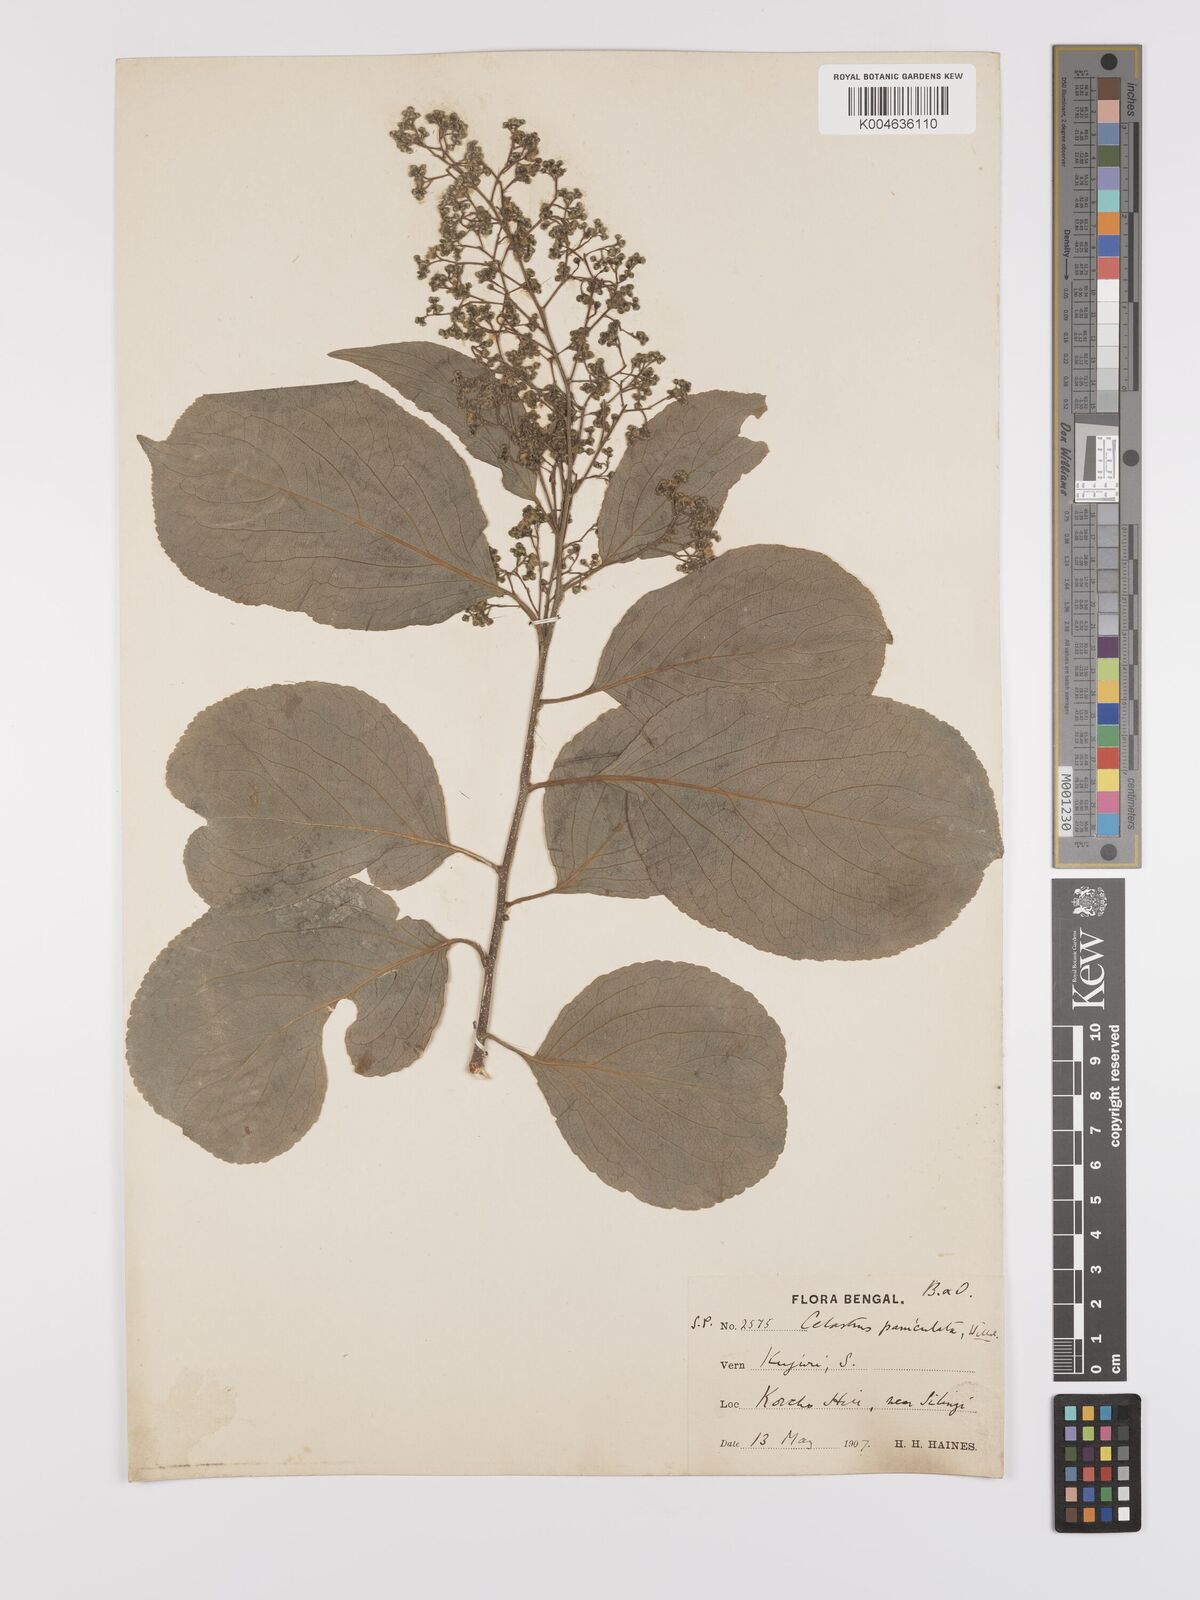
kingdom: Plantae
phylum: Tracheophyta
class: Magnoliopsida
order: Celastrales
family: Celastraceae
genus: Celastrus
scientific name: Celastrus
